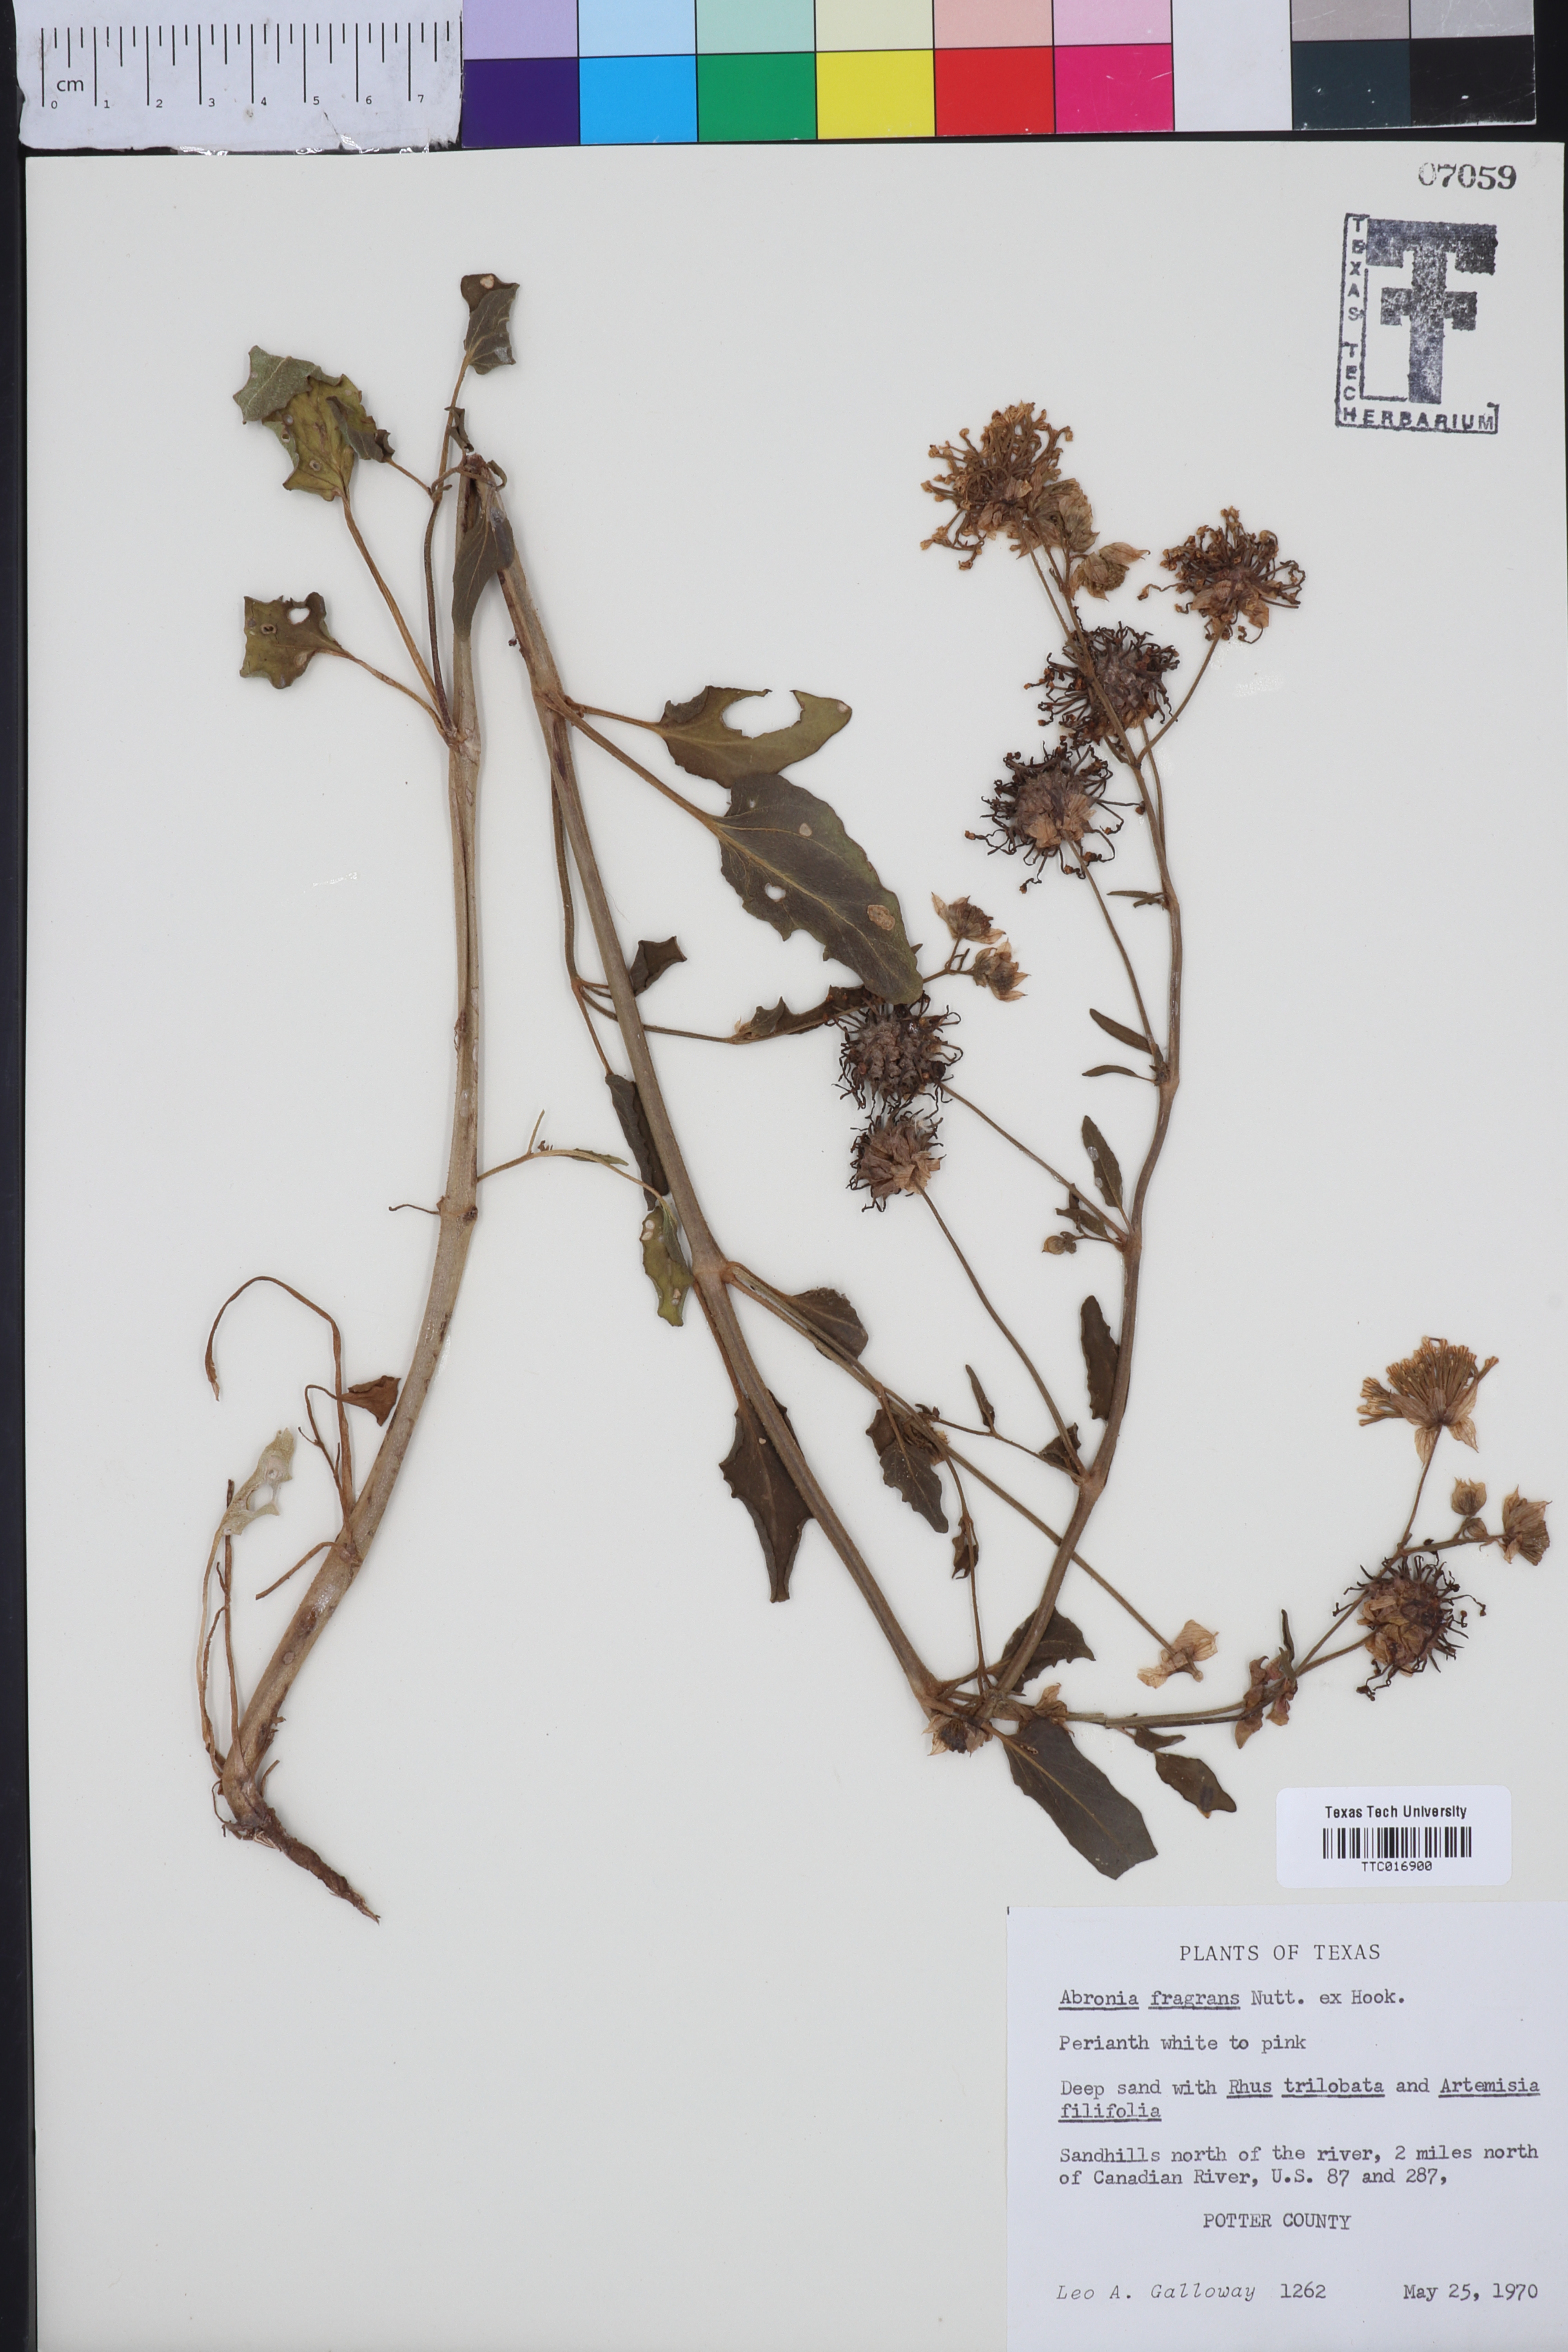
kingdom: Plantae
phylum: Tracheophyta
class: Magnoliopsida
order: Caryophyllales
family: Nyctaginaceae
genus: Abronia
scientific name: Abronia fragrans
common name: Fragrant sand-verbena
